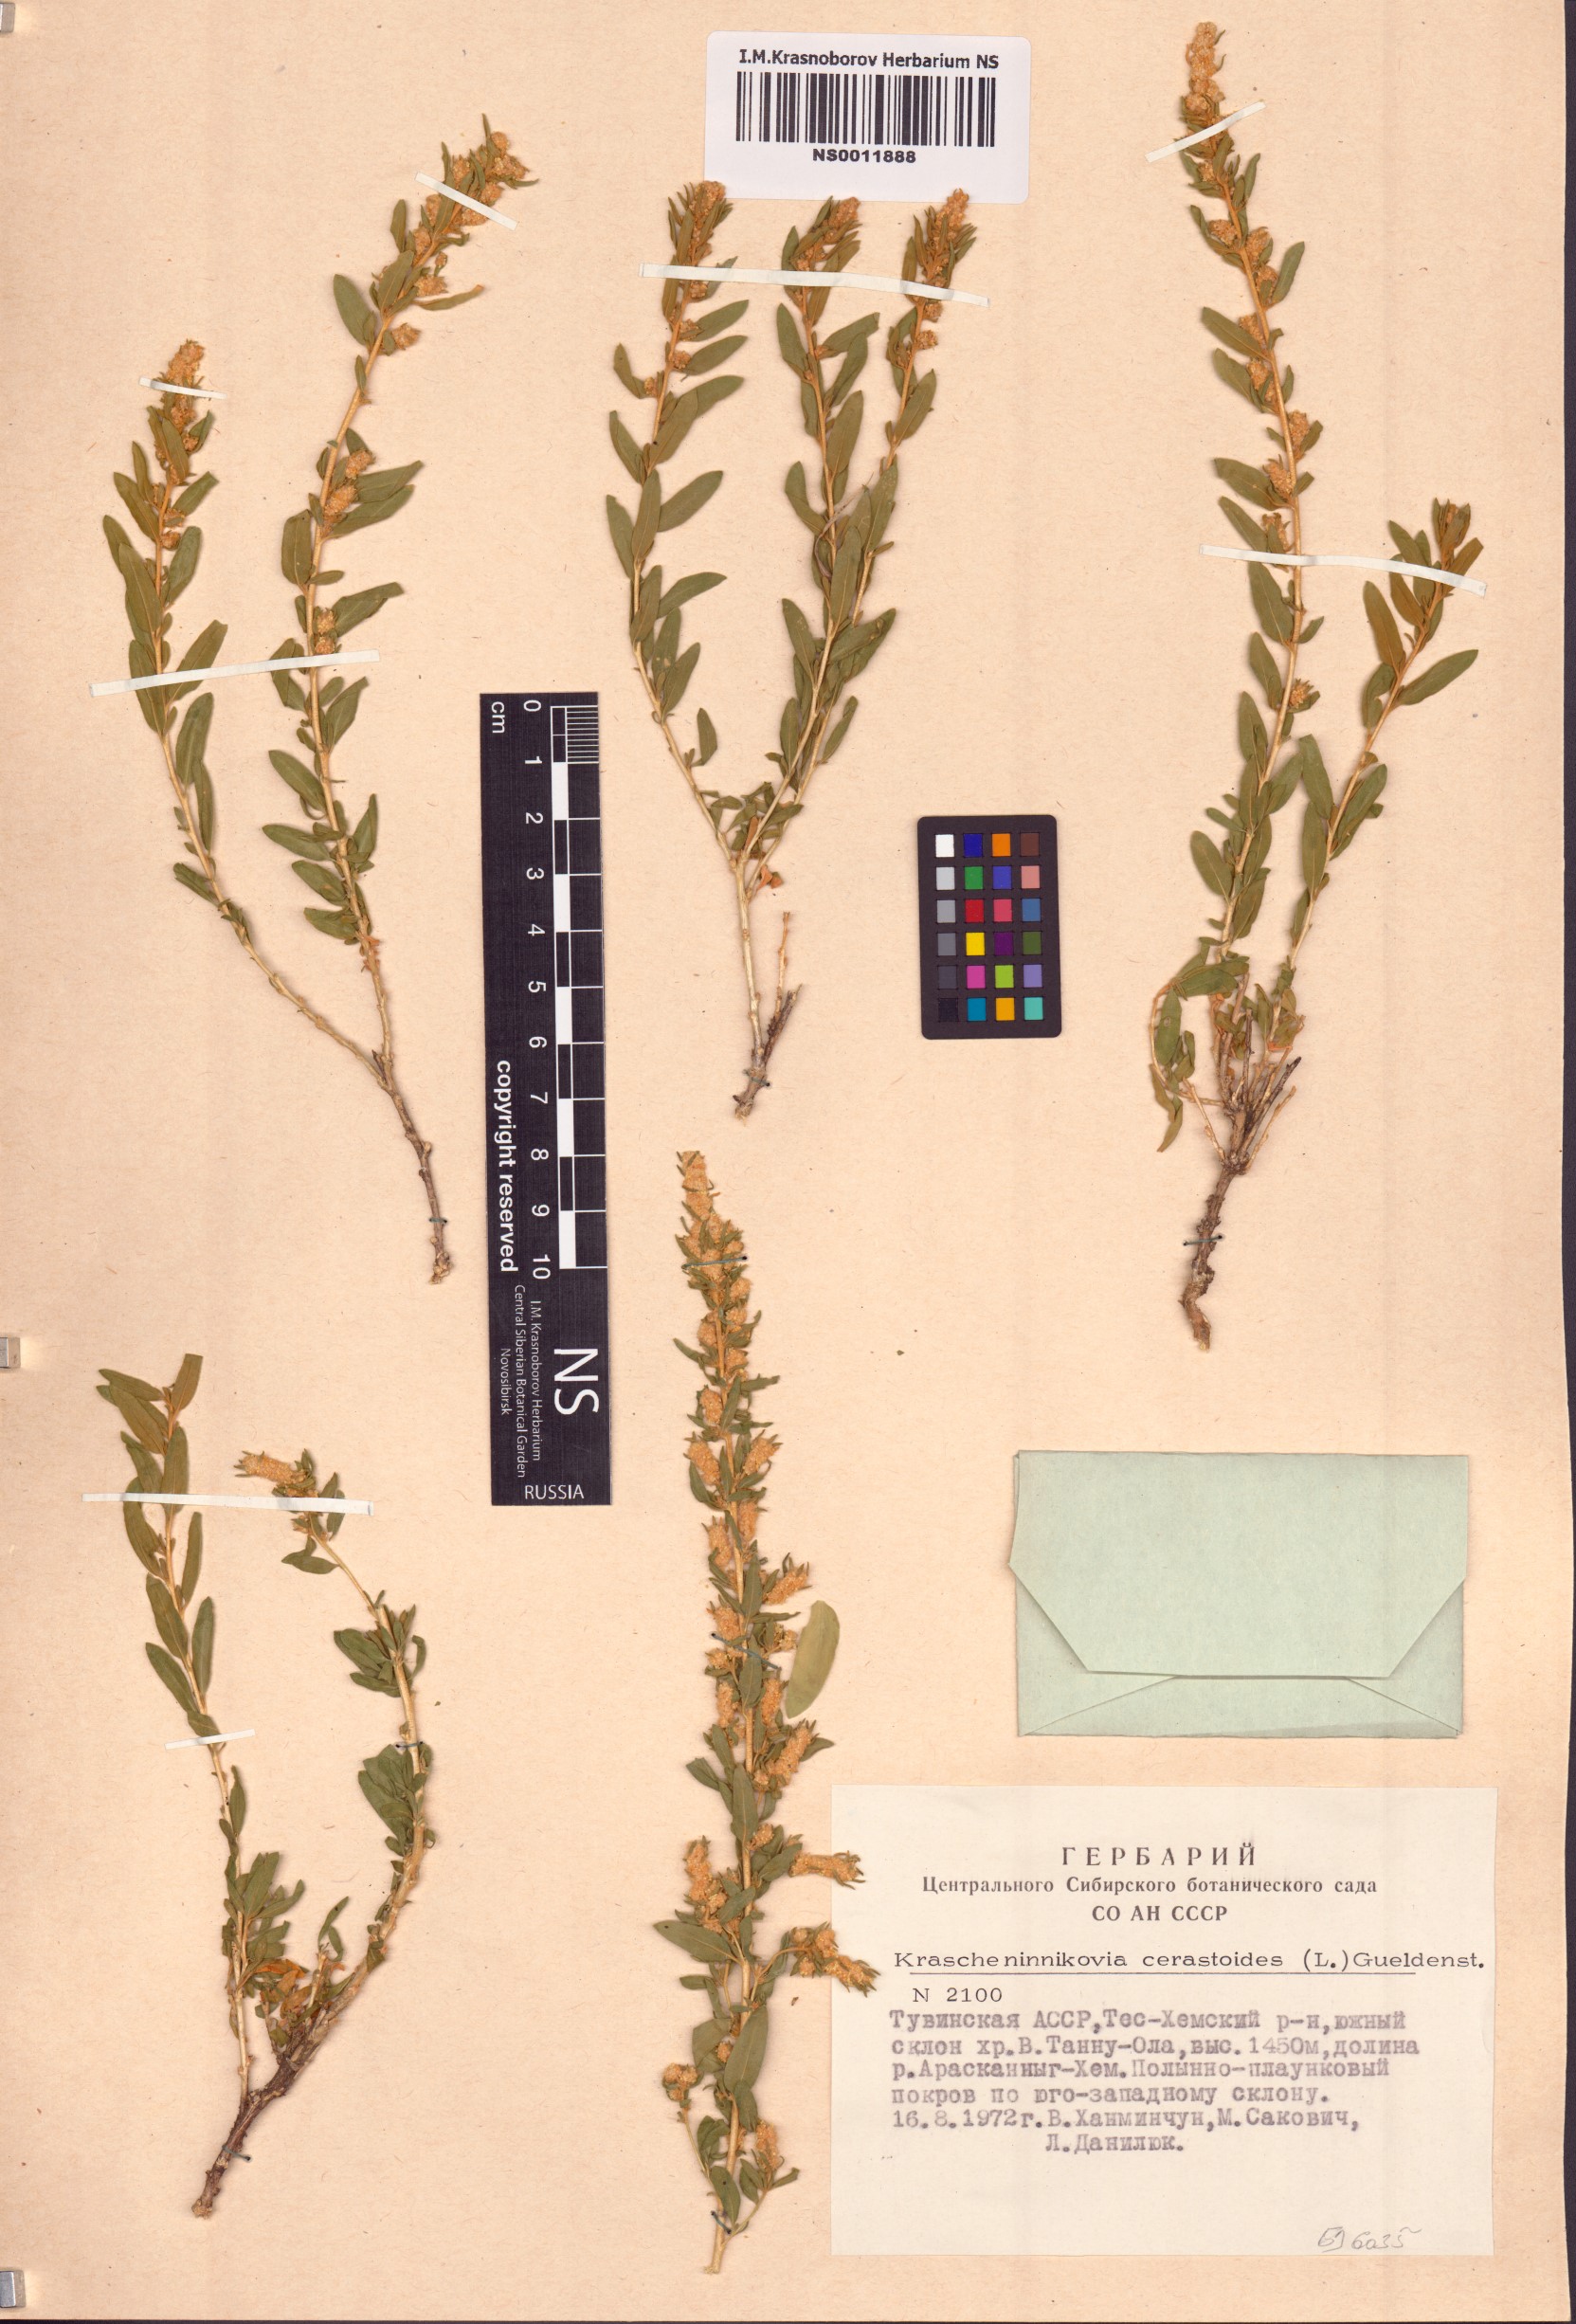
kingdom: Plantae
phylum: Tracheophyta
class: Magnoliopsida
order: Caryophyllales
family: Amaranthaceae
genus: Krascheninnikovia
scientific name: Krascheninnikovia ceratoides
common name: Pamirian winterfat
